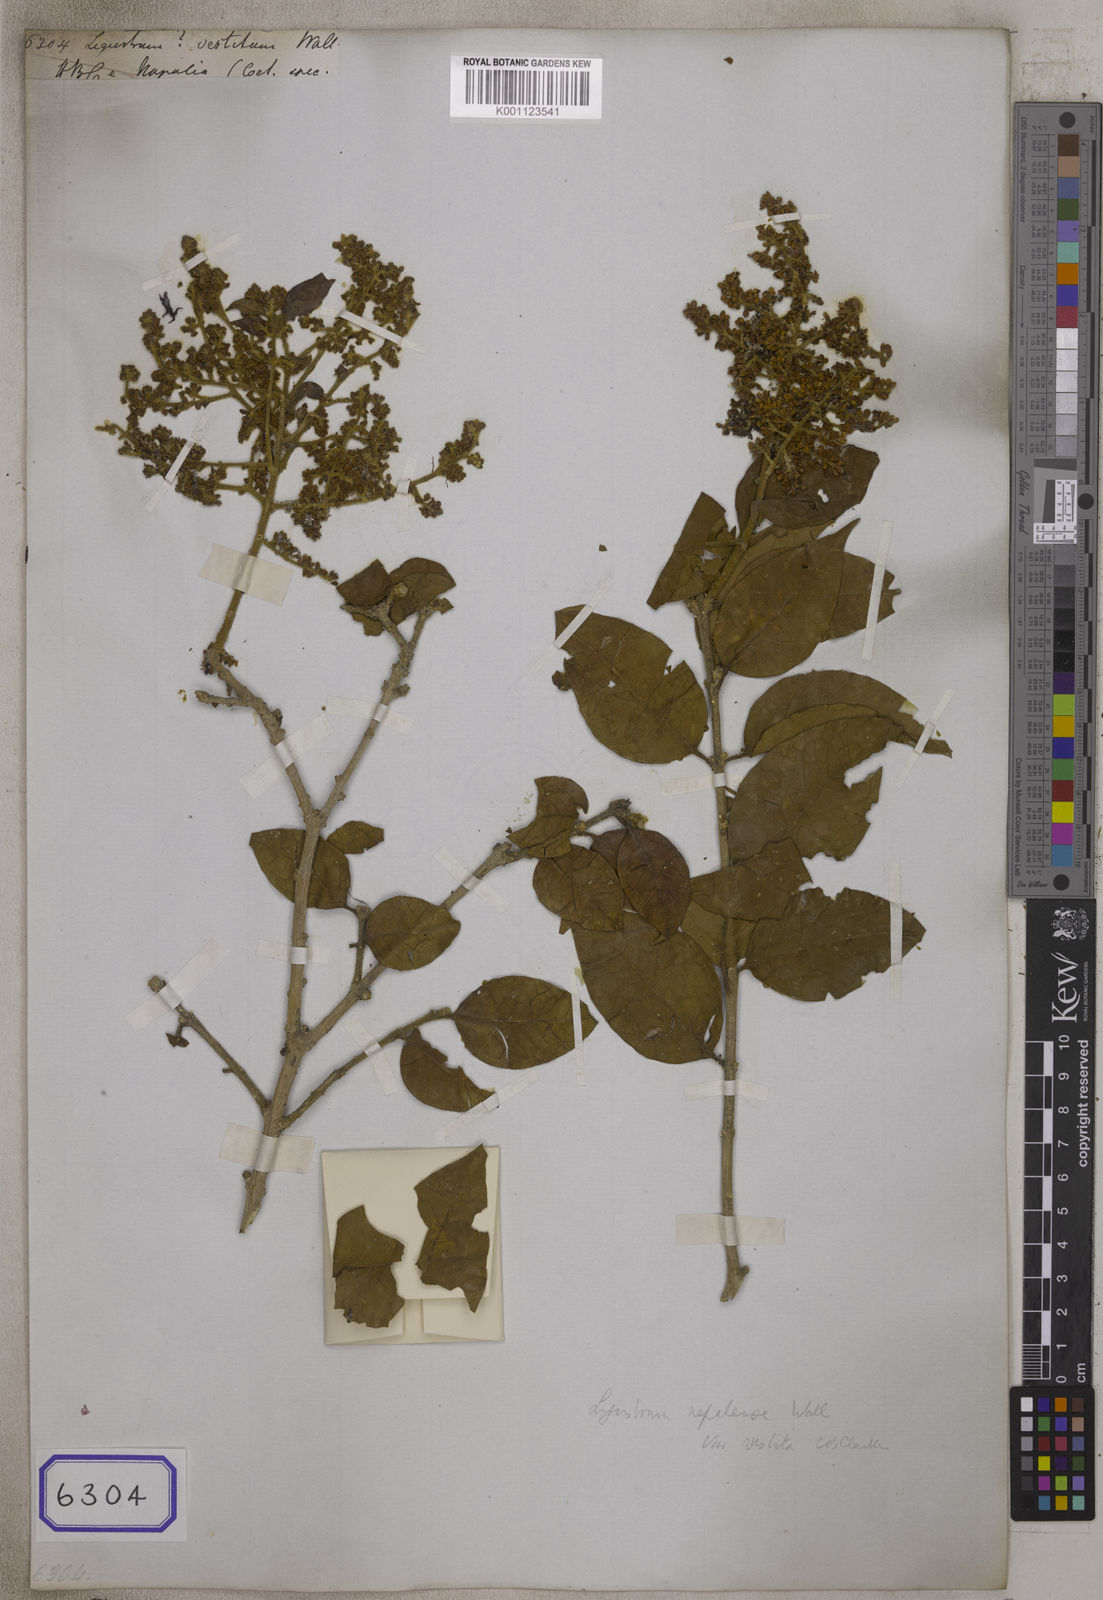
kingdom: Plantae
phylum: Tracheophyta
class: Magnoliopsida
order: Lamiales
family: Oleaceae
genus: Ligustrum
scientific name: Ligustrum nepalense
